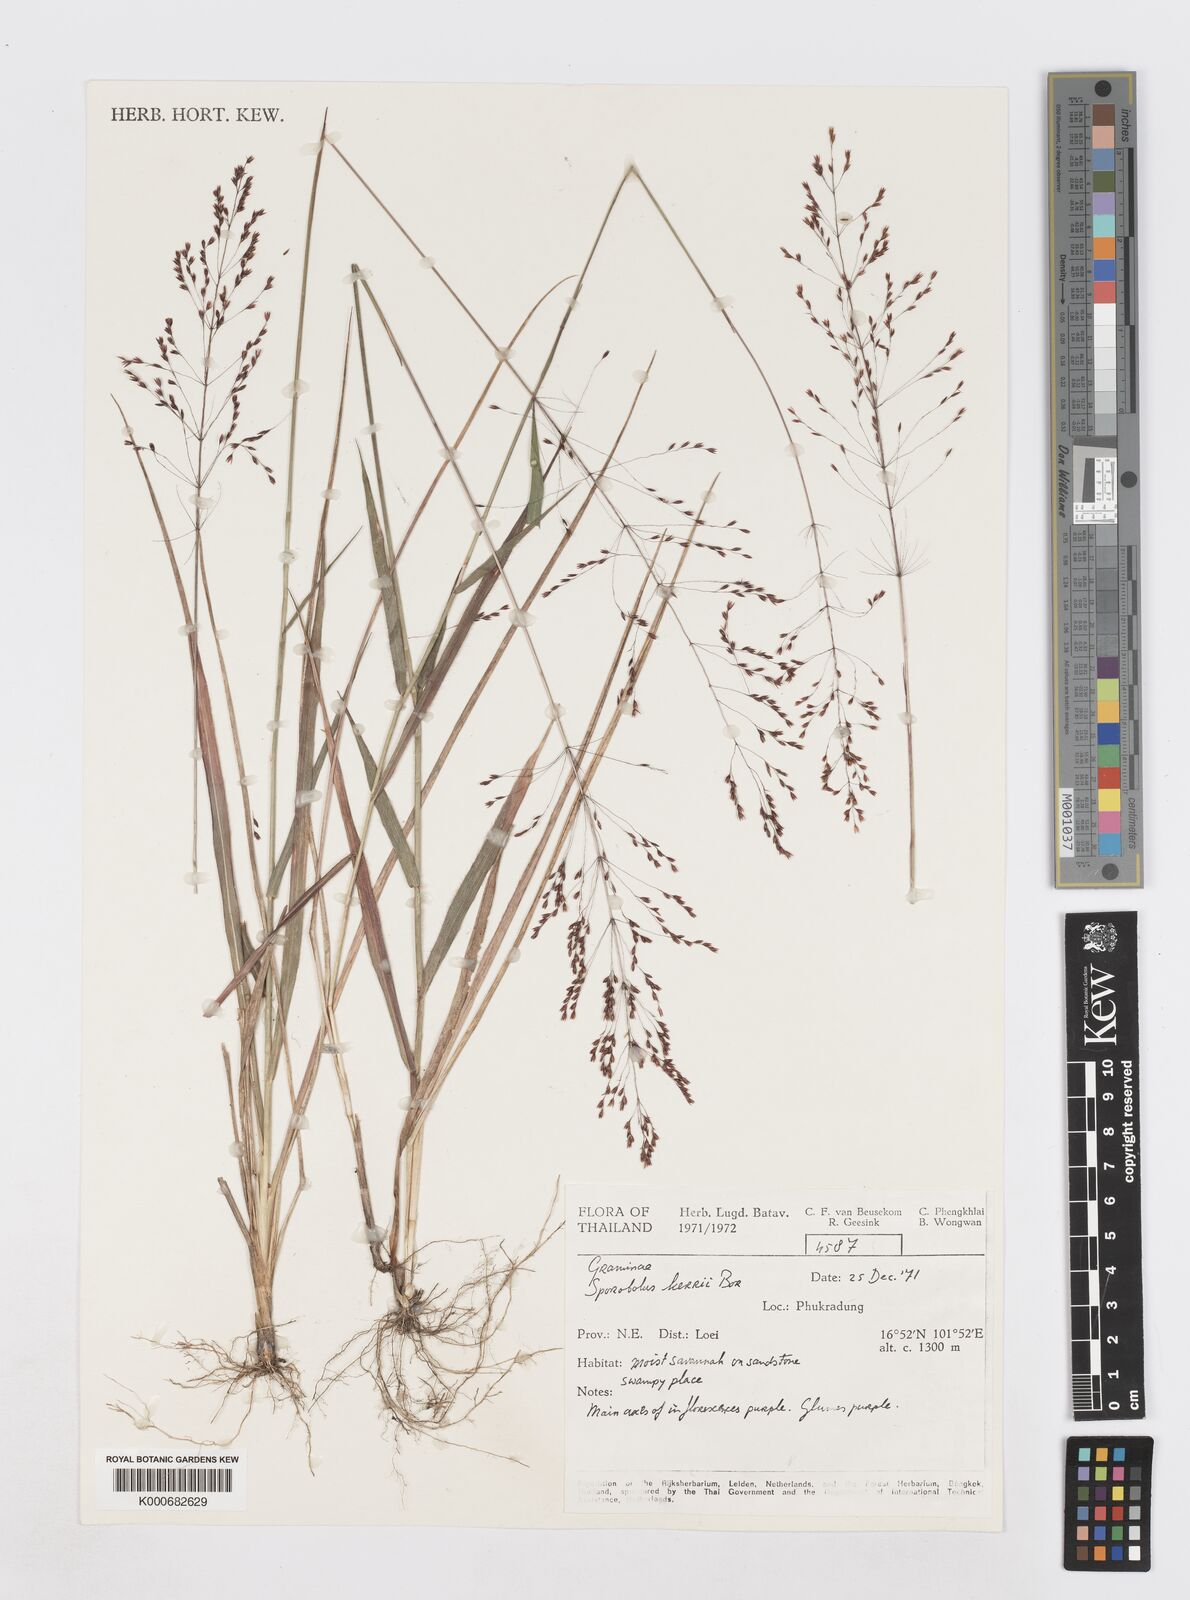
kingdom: Plantae
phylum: Tracheophyta
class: Liliopsida
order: Poales
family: Poaceae
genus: Sporobolus
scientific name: Sporobolus kerrii
